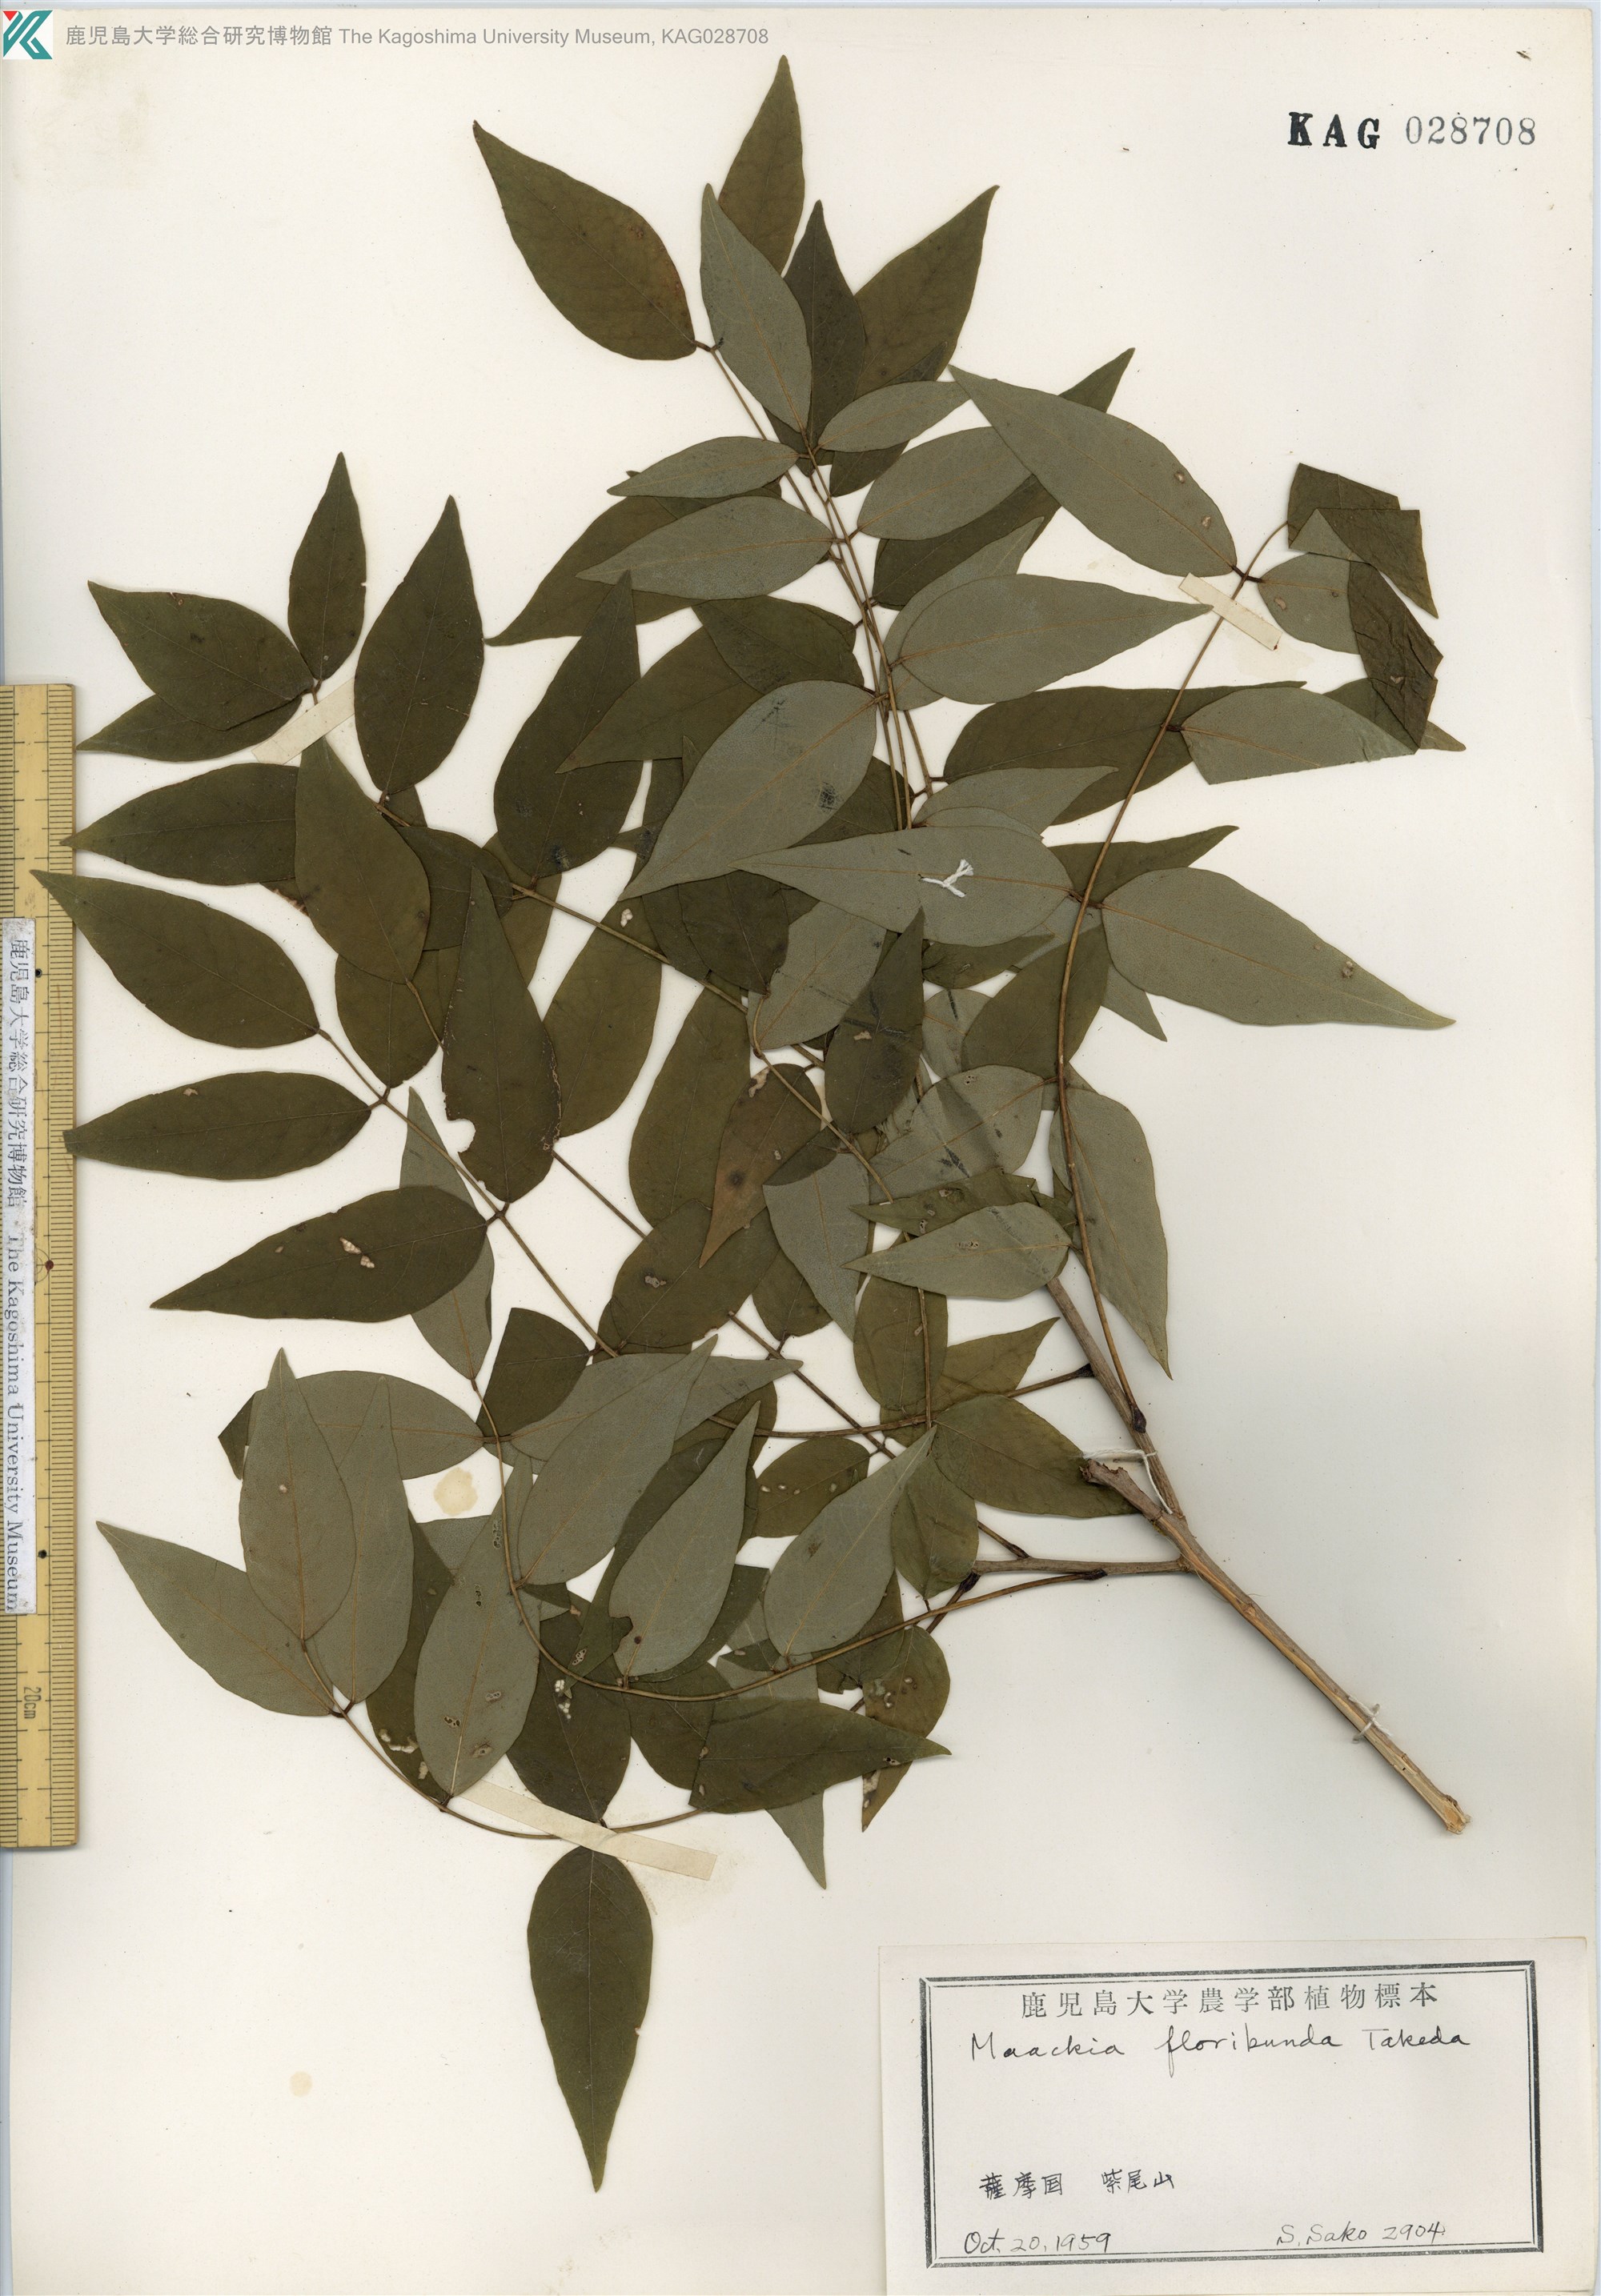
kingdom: Plantae
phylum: Tracheophyta
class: Magnoliopsida
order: Fabales
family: Fabaceae
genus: Maackia
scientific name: Maackia amurensis
